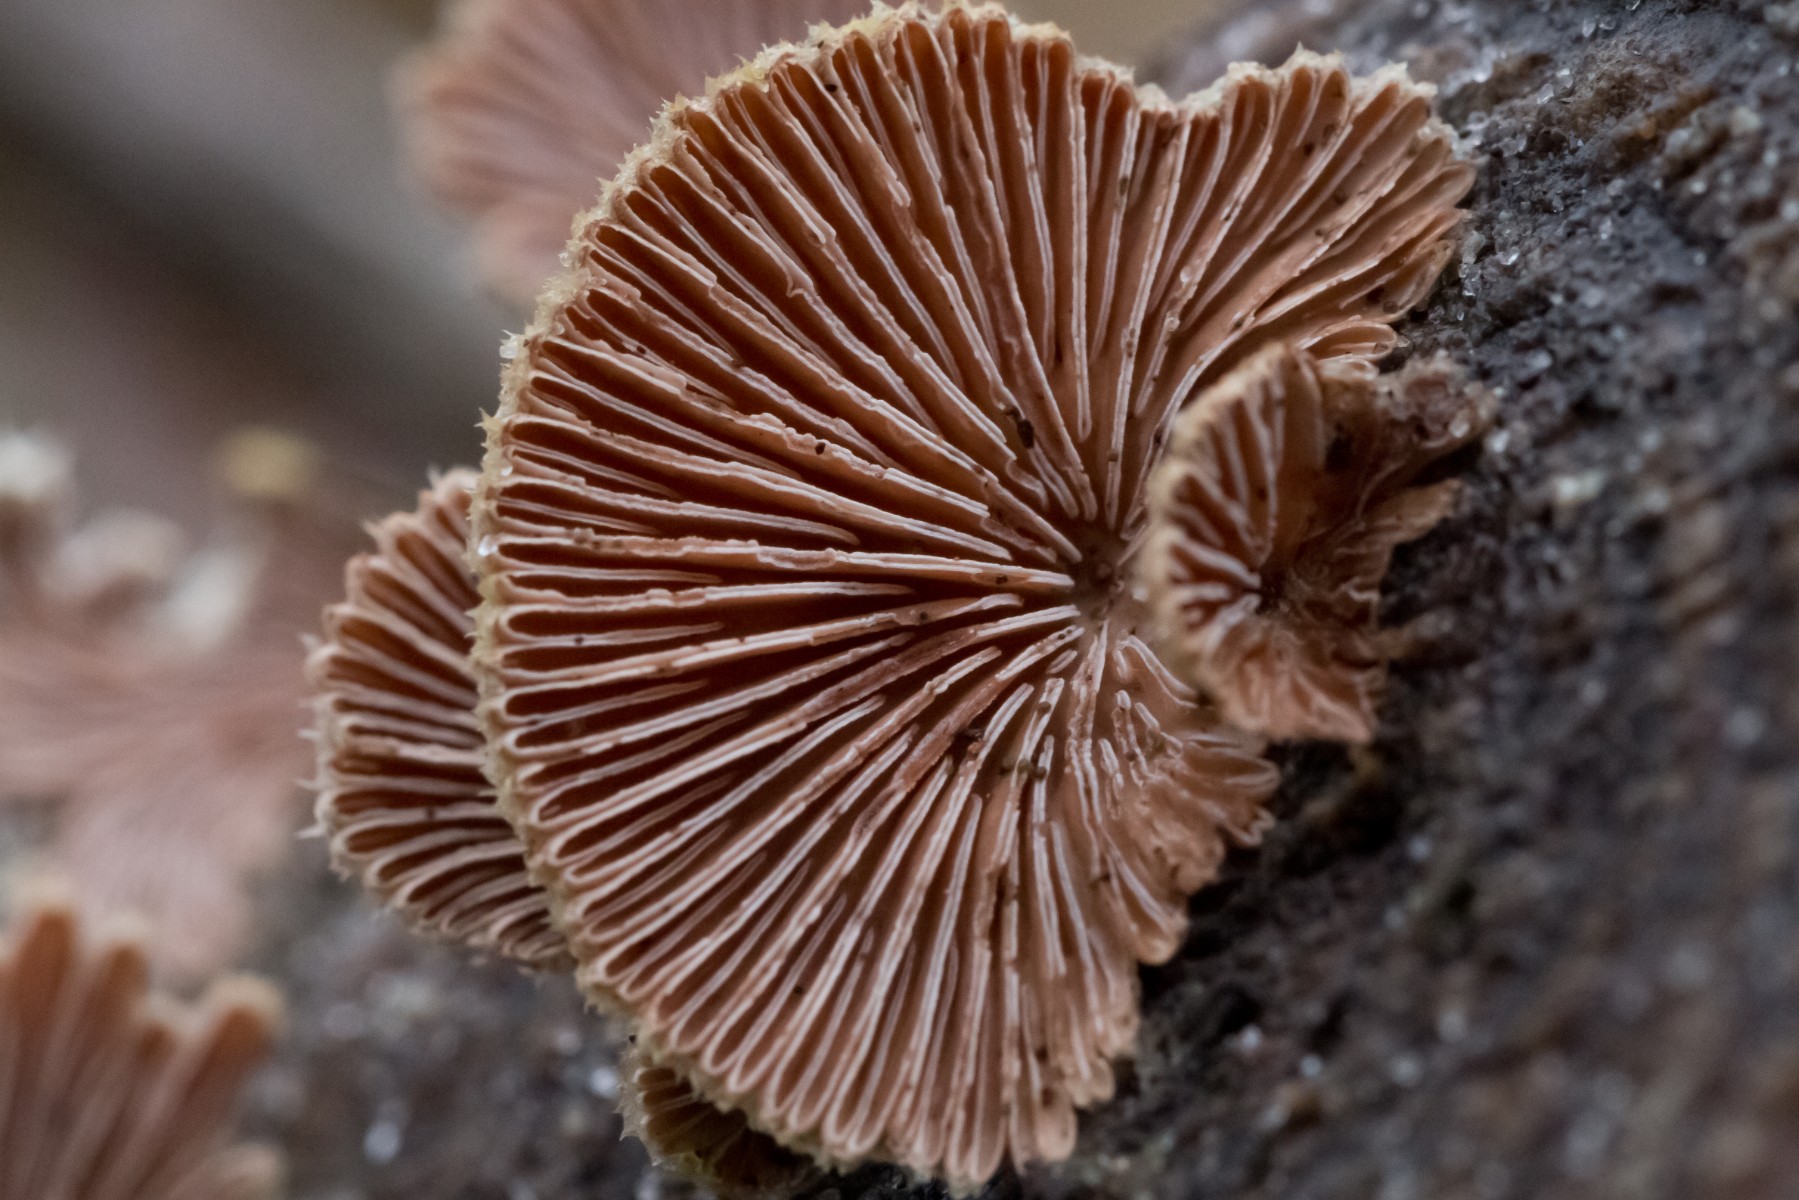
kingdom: Fungi
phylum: Basidiomycota
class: Agaricomycetes
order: Agaricales
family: Schizophyllaceae
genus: Schizophyllum
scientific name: Schizophyllum commune
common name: kløvblad
